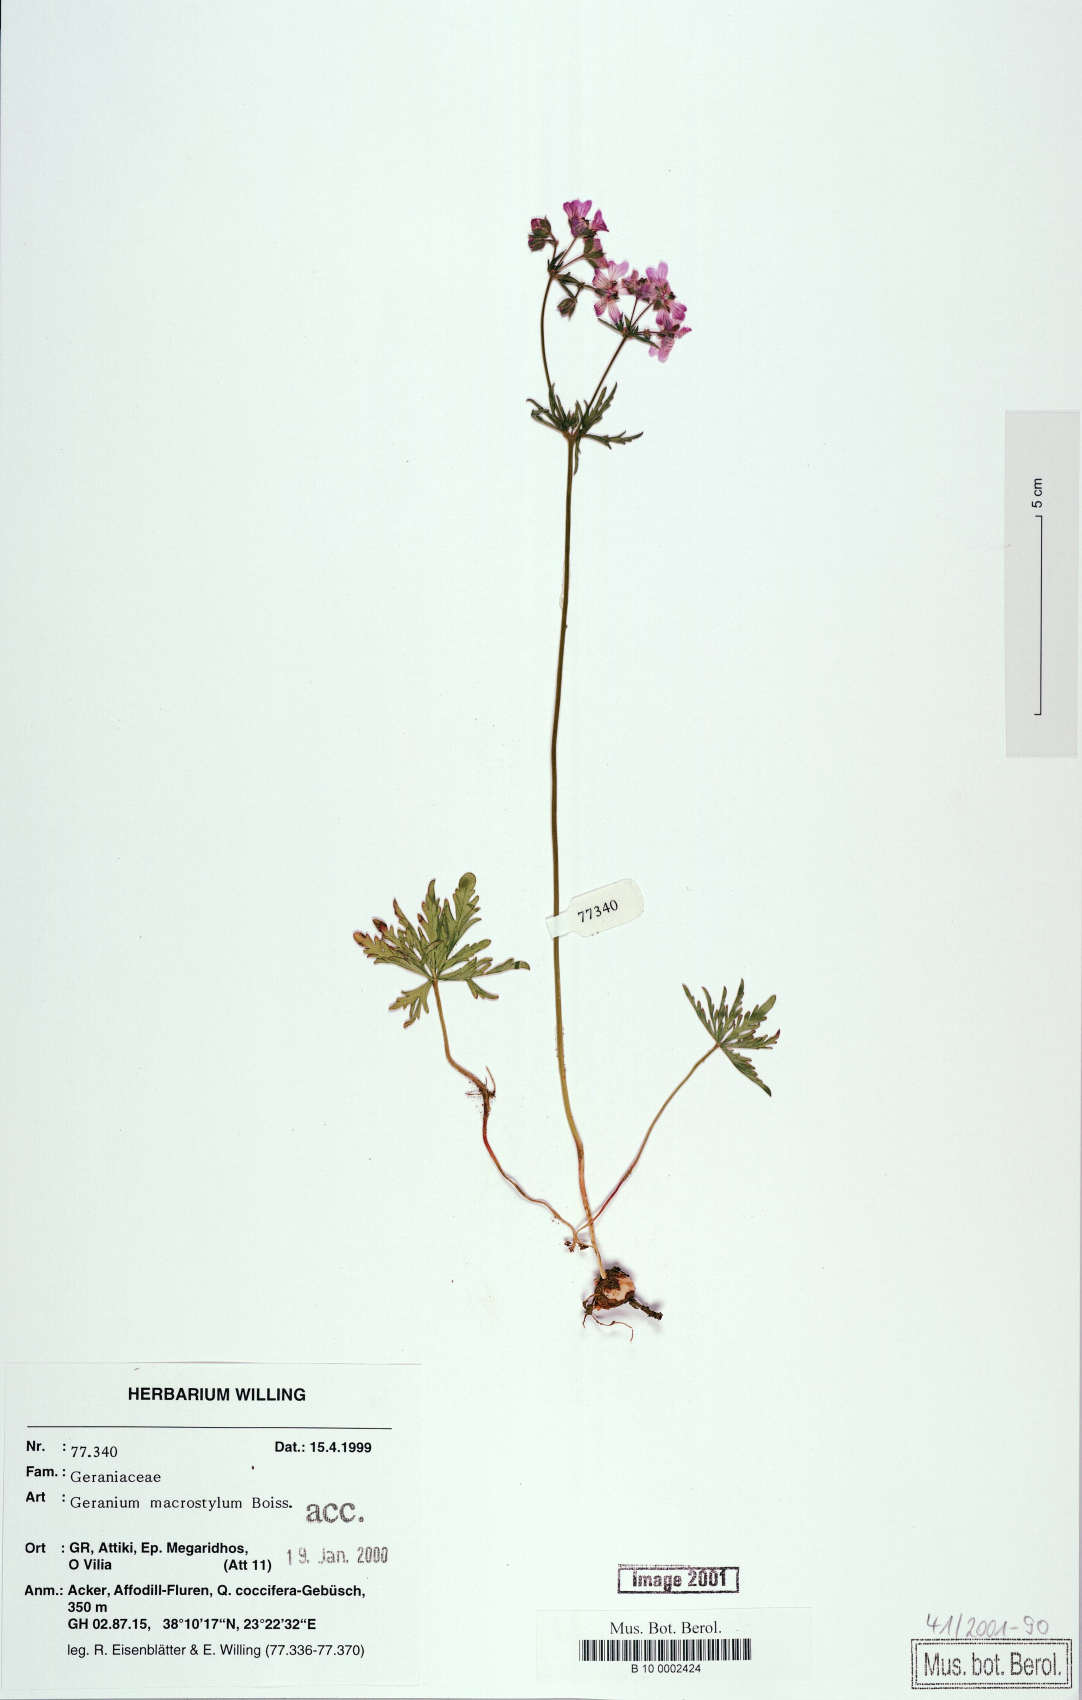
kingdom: Plantae
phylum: Tracheophyta
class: Magnoliopsida
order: Geraniales
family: Geraniaceae
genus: Geranium
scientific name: Geranium macrostylum
